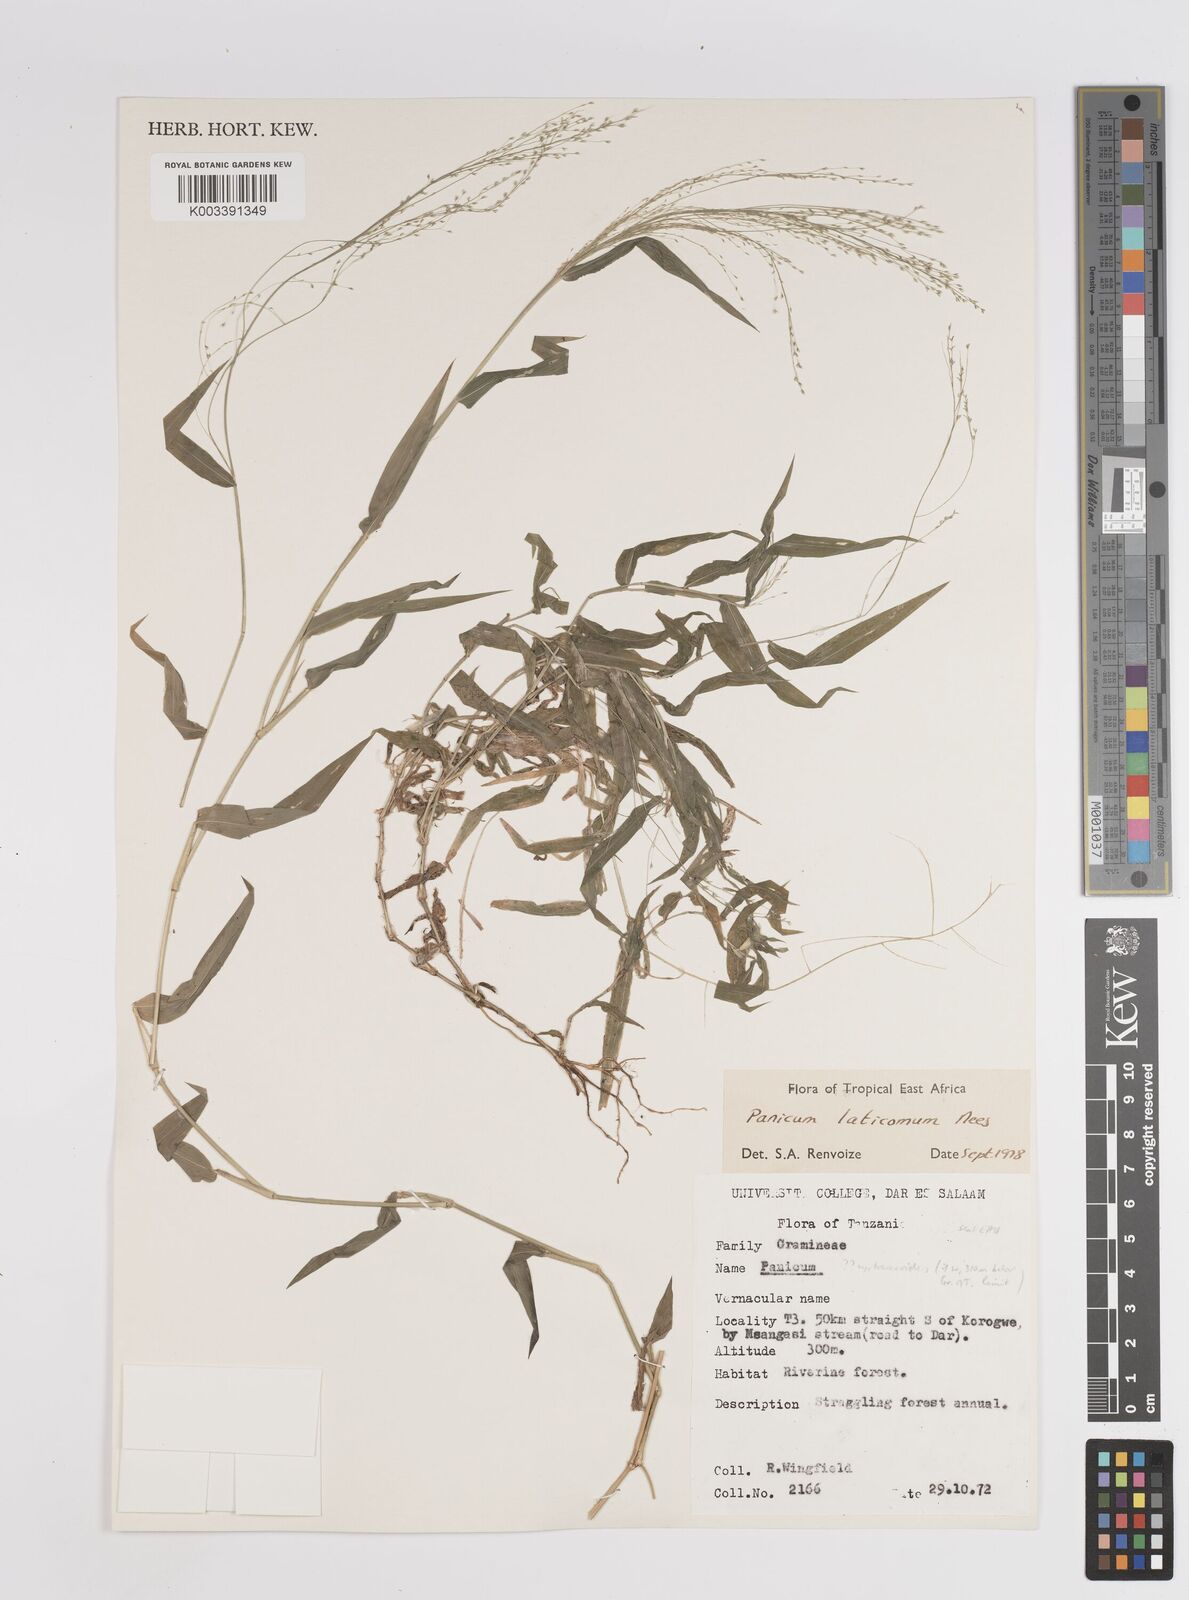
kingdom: Plantae
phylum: Tracheophyta
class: Liliopsida
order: Poales
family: Poaceae
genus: Panicum
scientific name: Panicum laticomum
